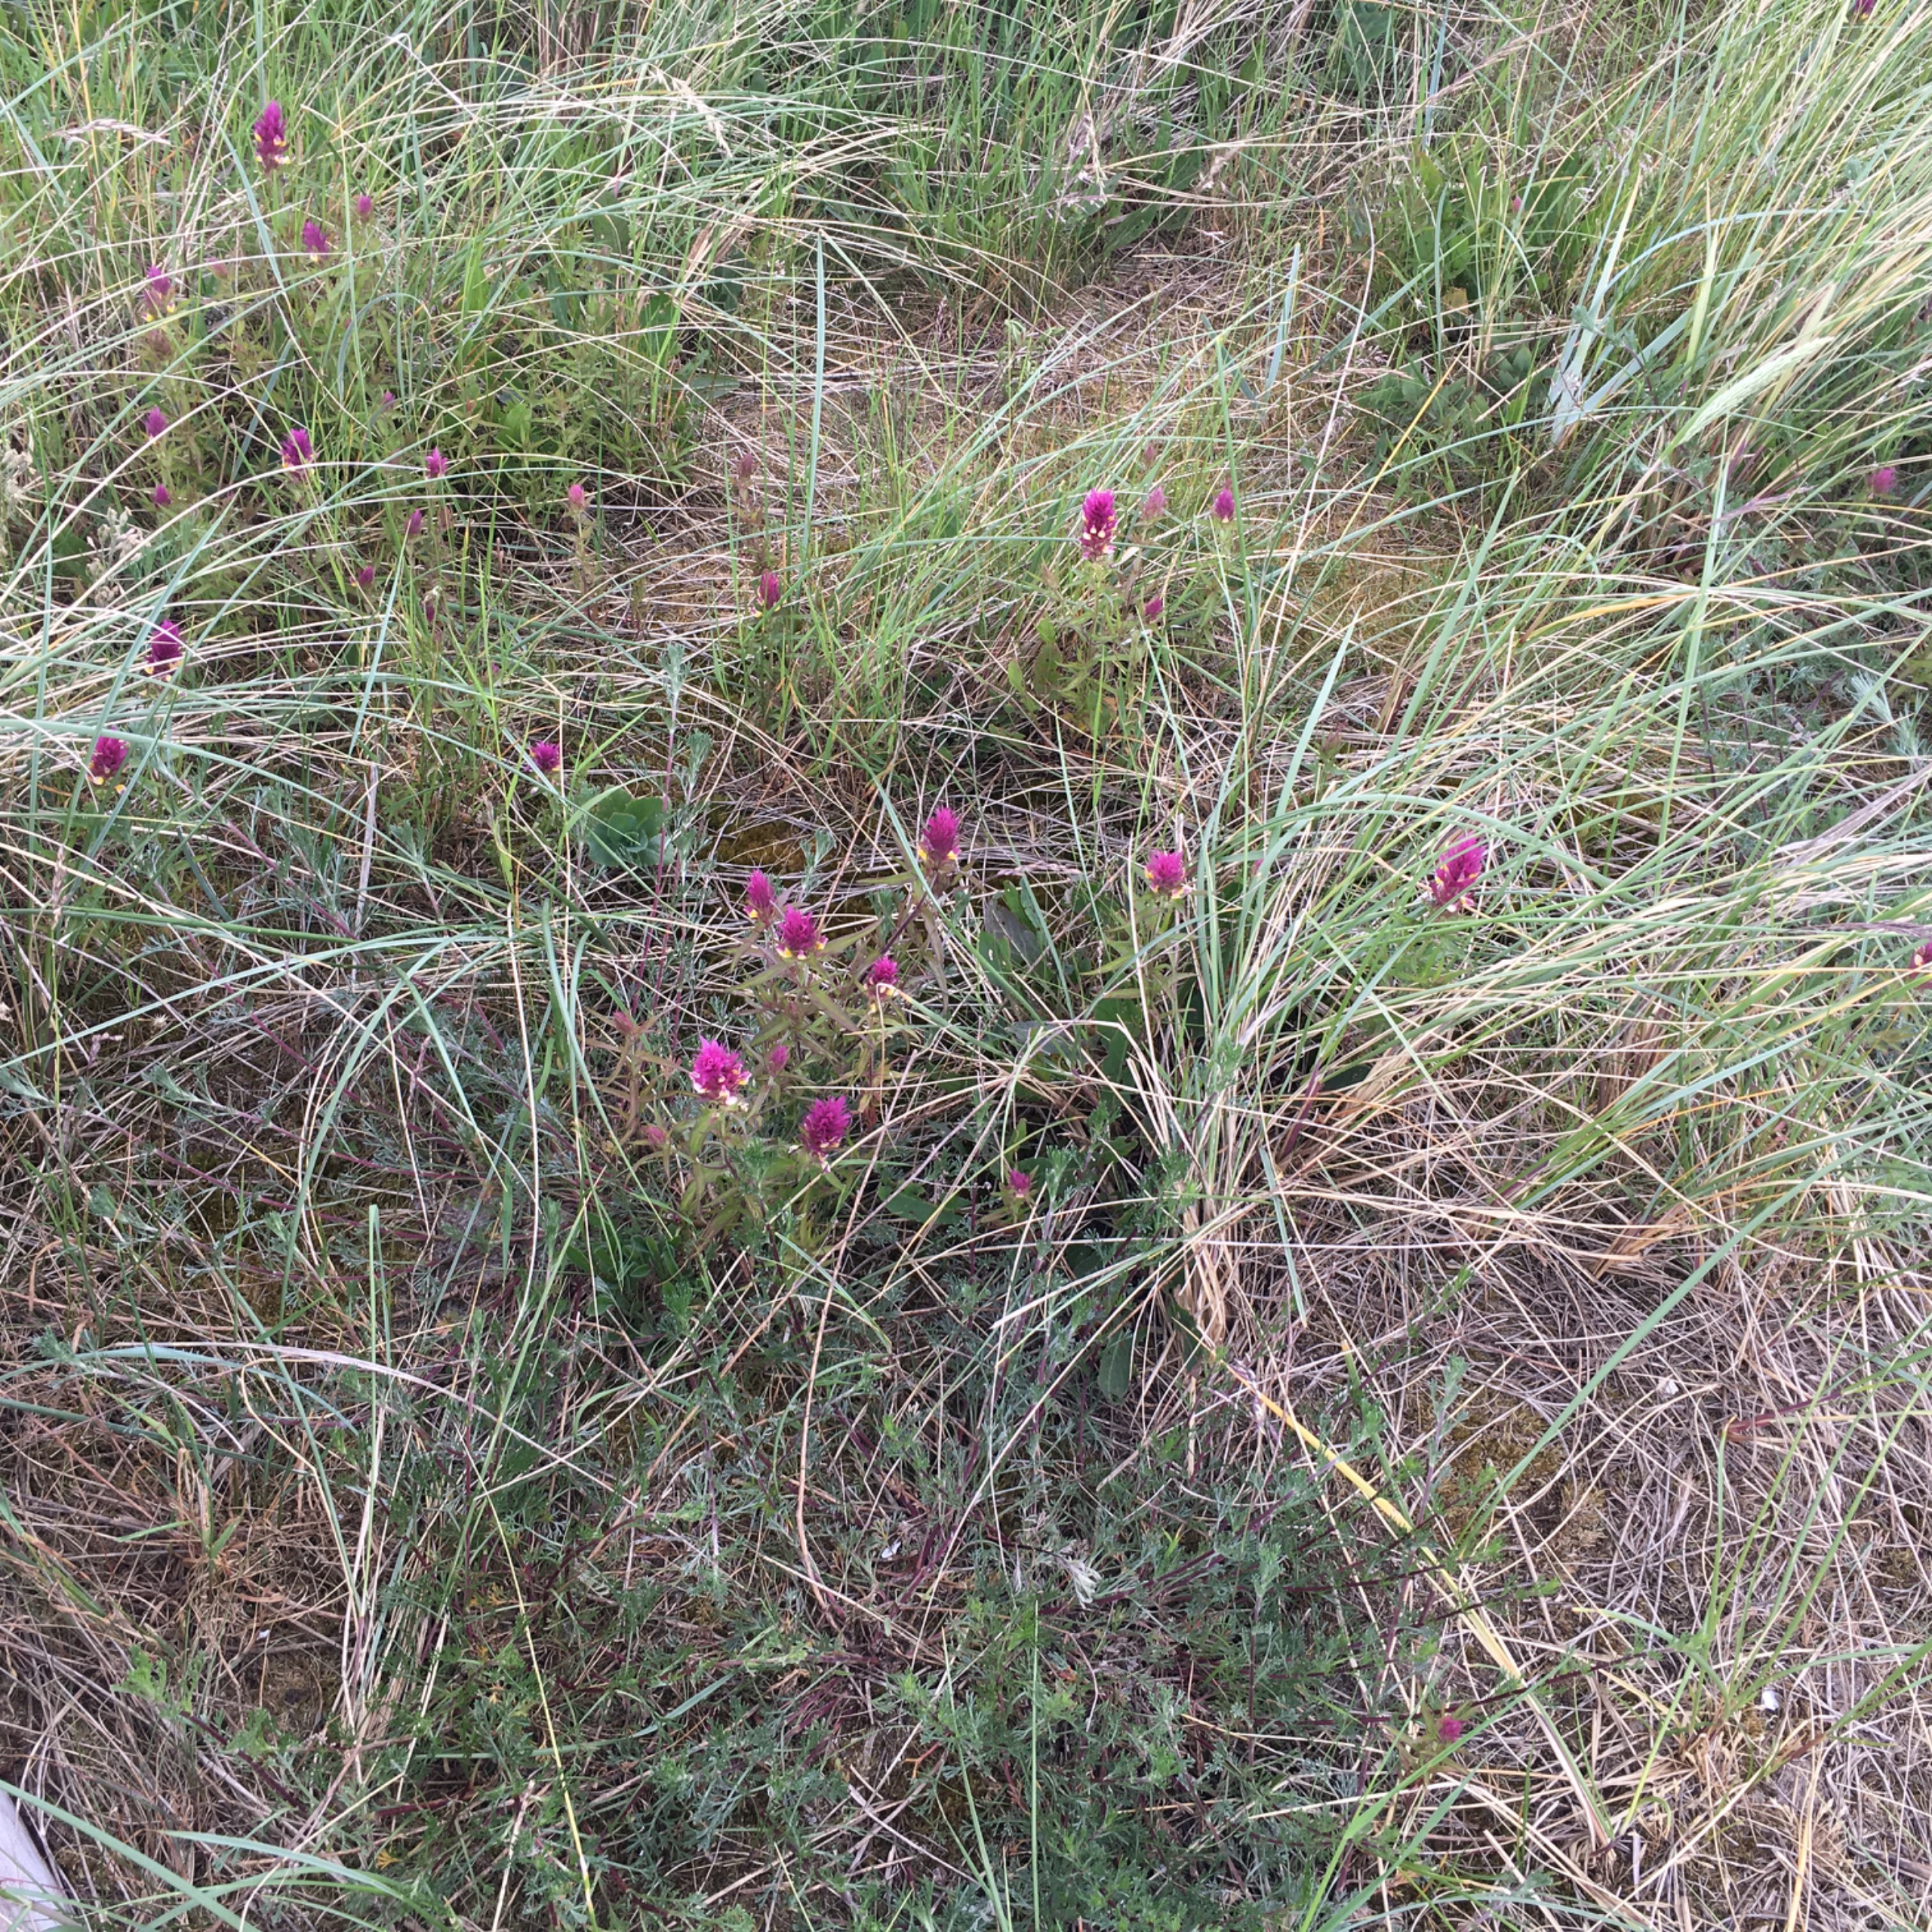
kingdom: Plantae
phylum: Tracheophyta
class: Magnoliopsida
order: Lamiales
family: Orobanchaceae
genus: Melampyrum
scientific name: Melampyrum arvense
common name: Ager-kohvede
